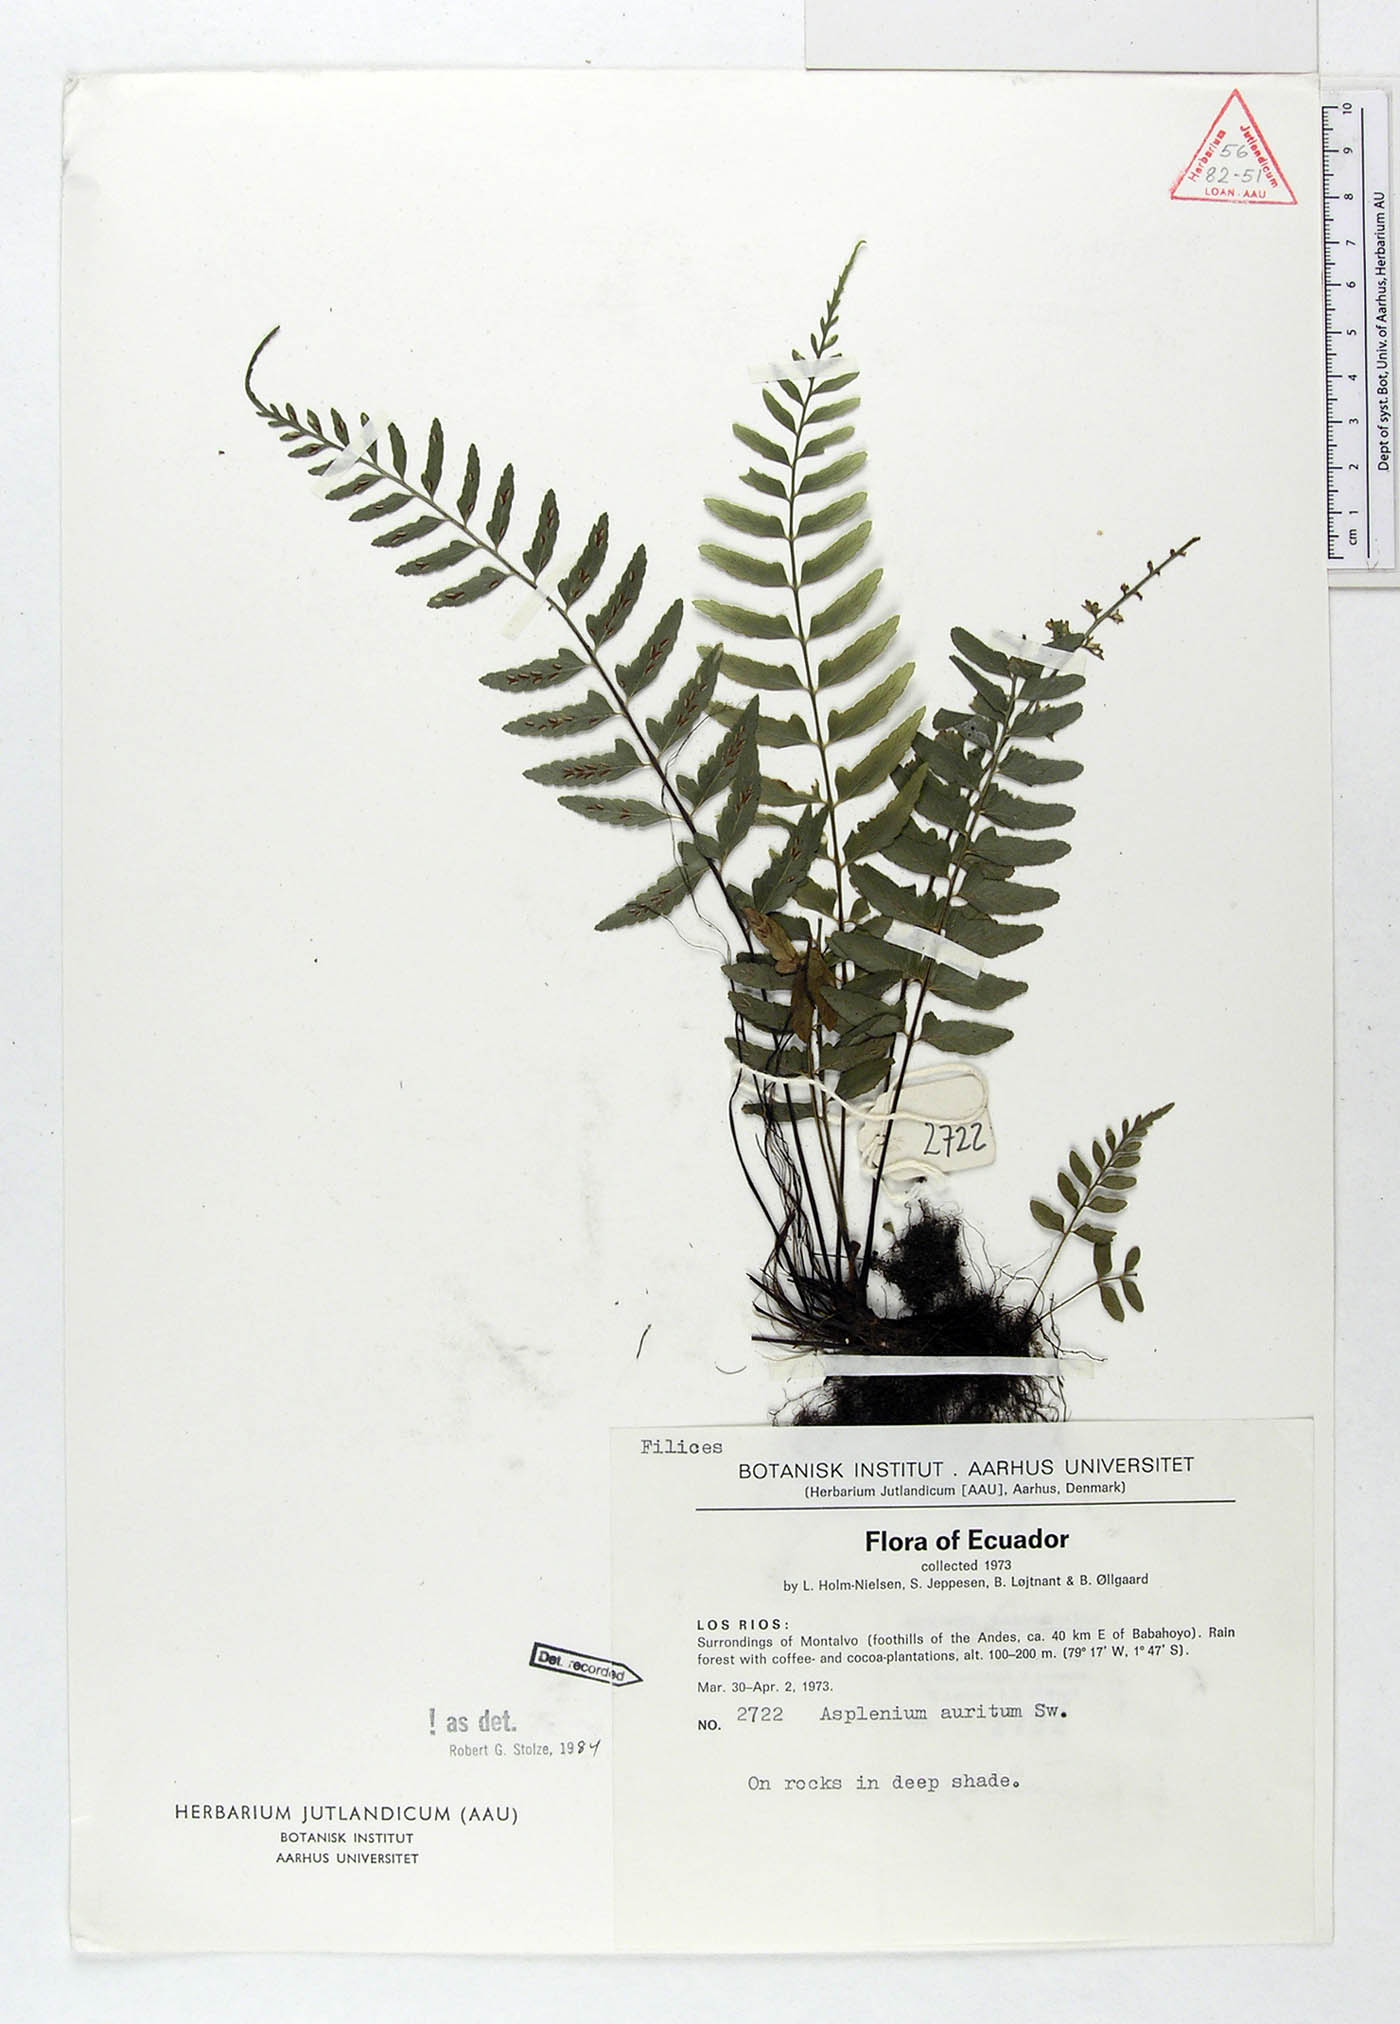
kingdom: Plantae
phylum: Tracheophyta
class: Polypodiopsida
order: Polypodiales
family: Aspleniaceae
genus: Asplenium
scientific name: Asplenium auritum
